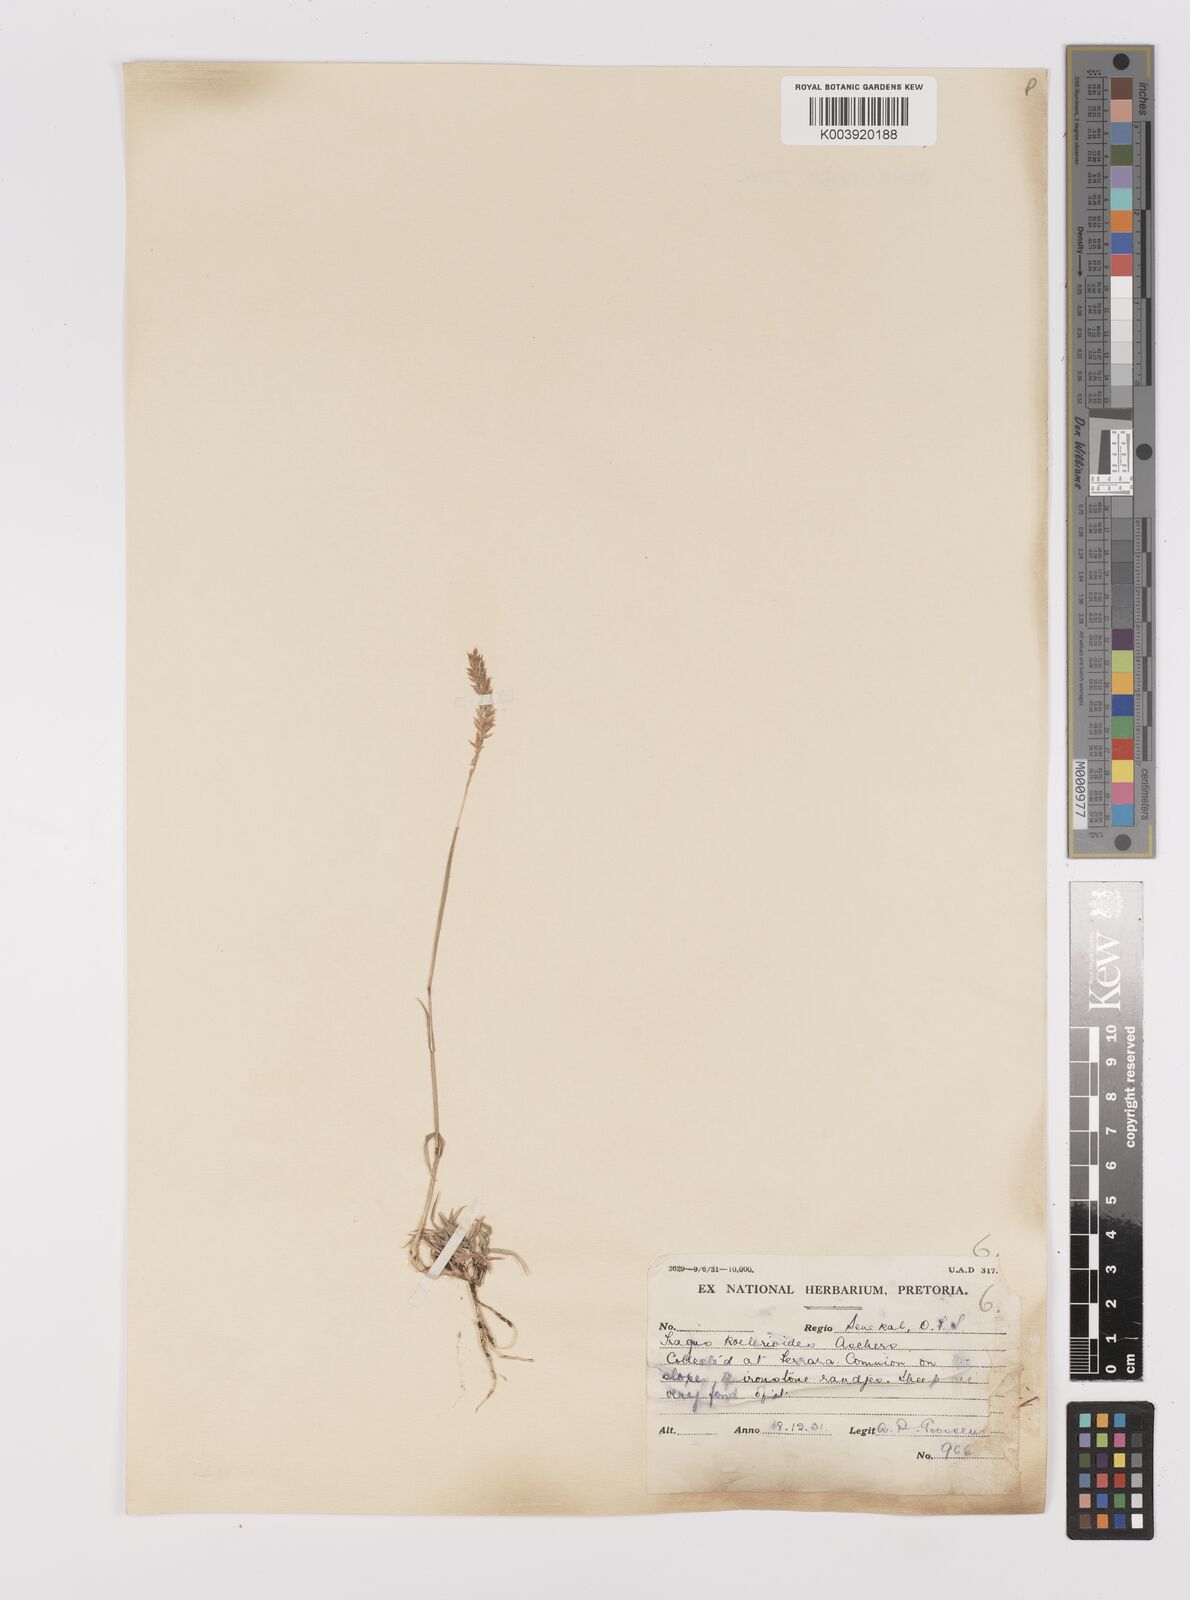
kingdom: Plantae
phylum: Tracheophyta
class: Liliopsida
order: Poales
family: Poaceae
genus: Tragus
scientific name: Tragus koelerioides
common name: Creeping carrot-seed grass
